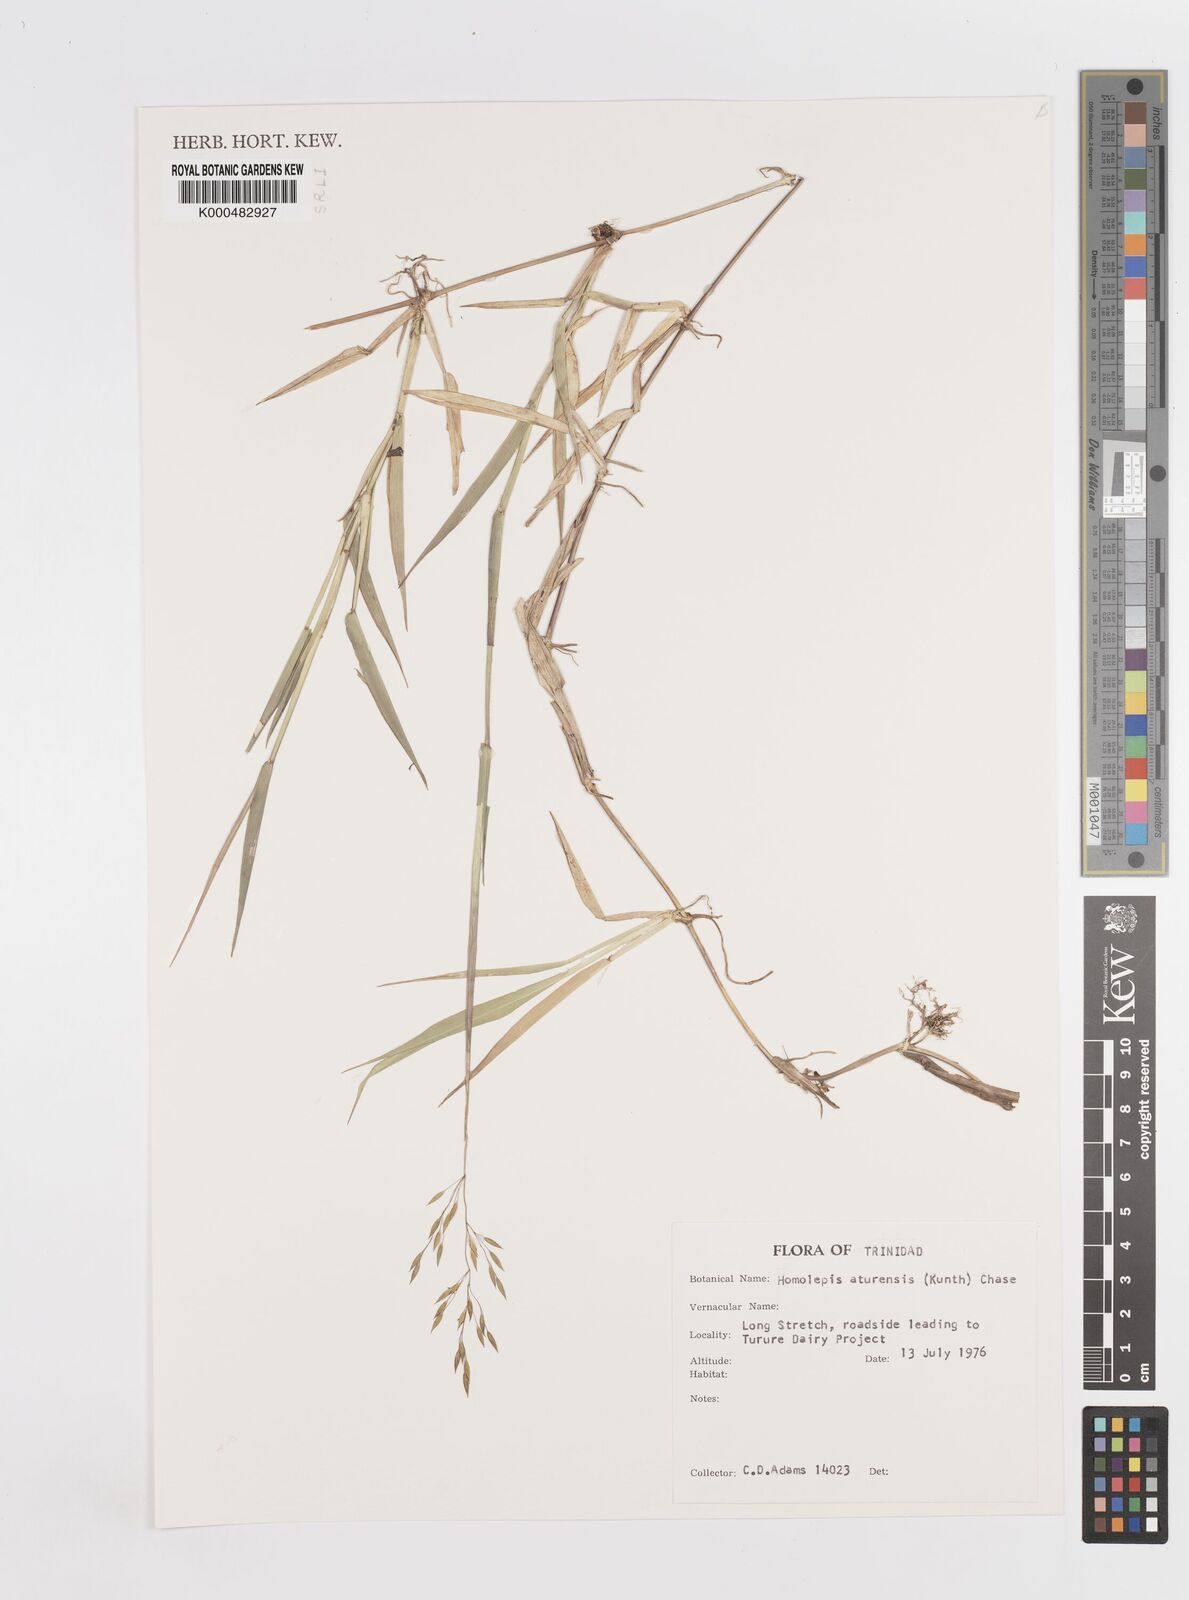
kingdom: Plantae
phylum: Tracheophyta
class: Liliopsida
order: Poales
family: Poaceae
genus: Homolepis
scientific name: Homolepis aturensis
